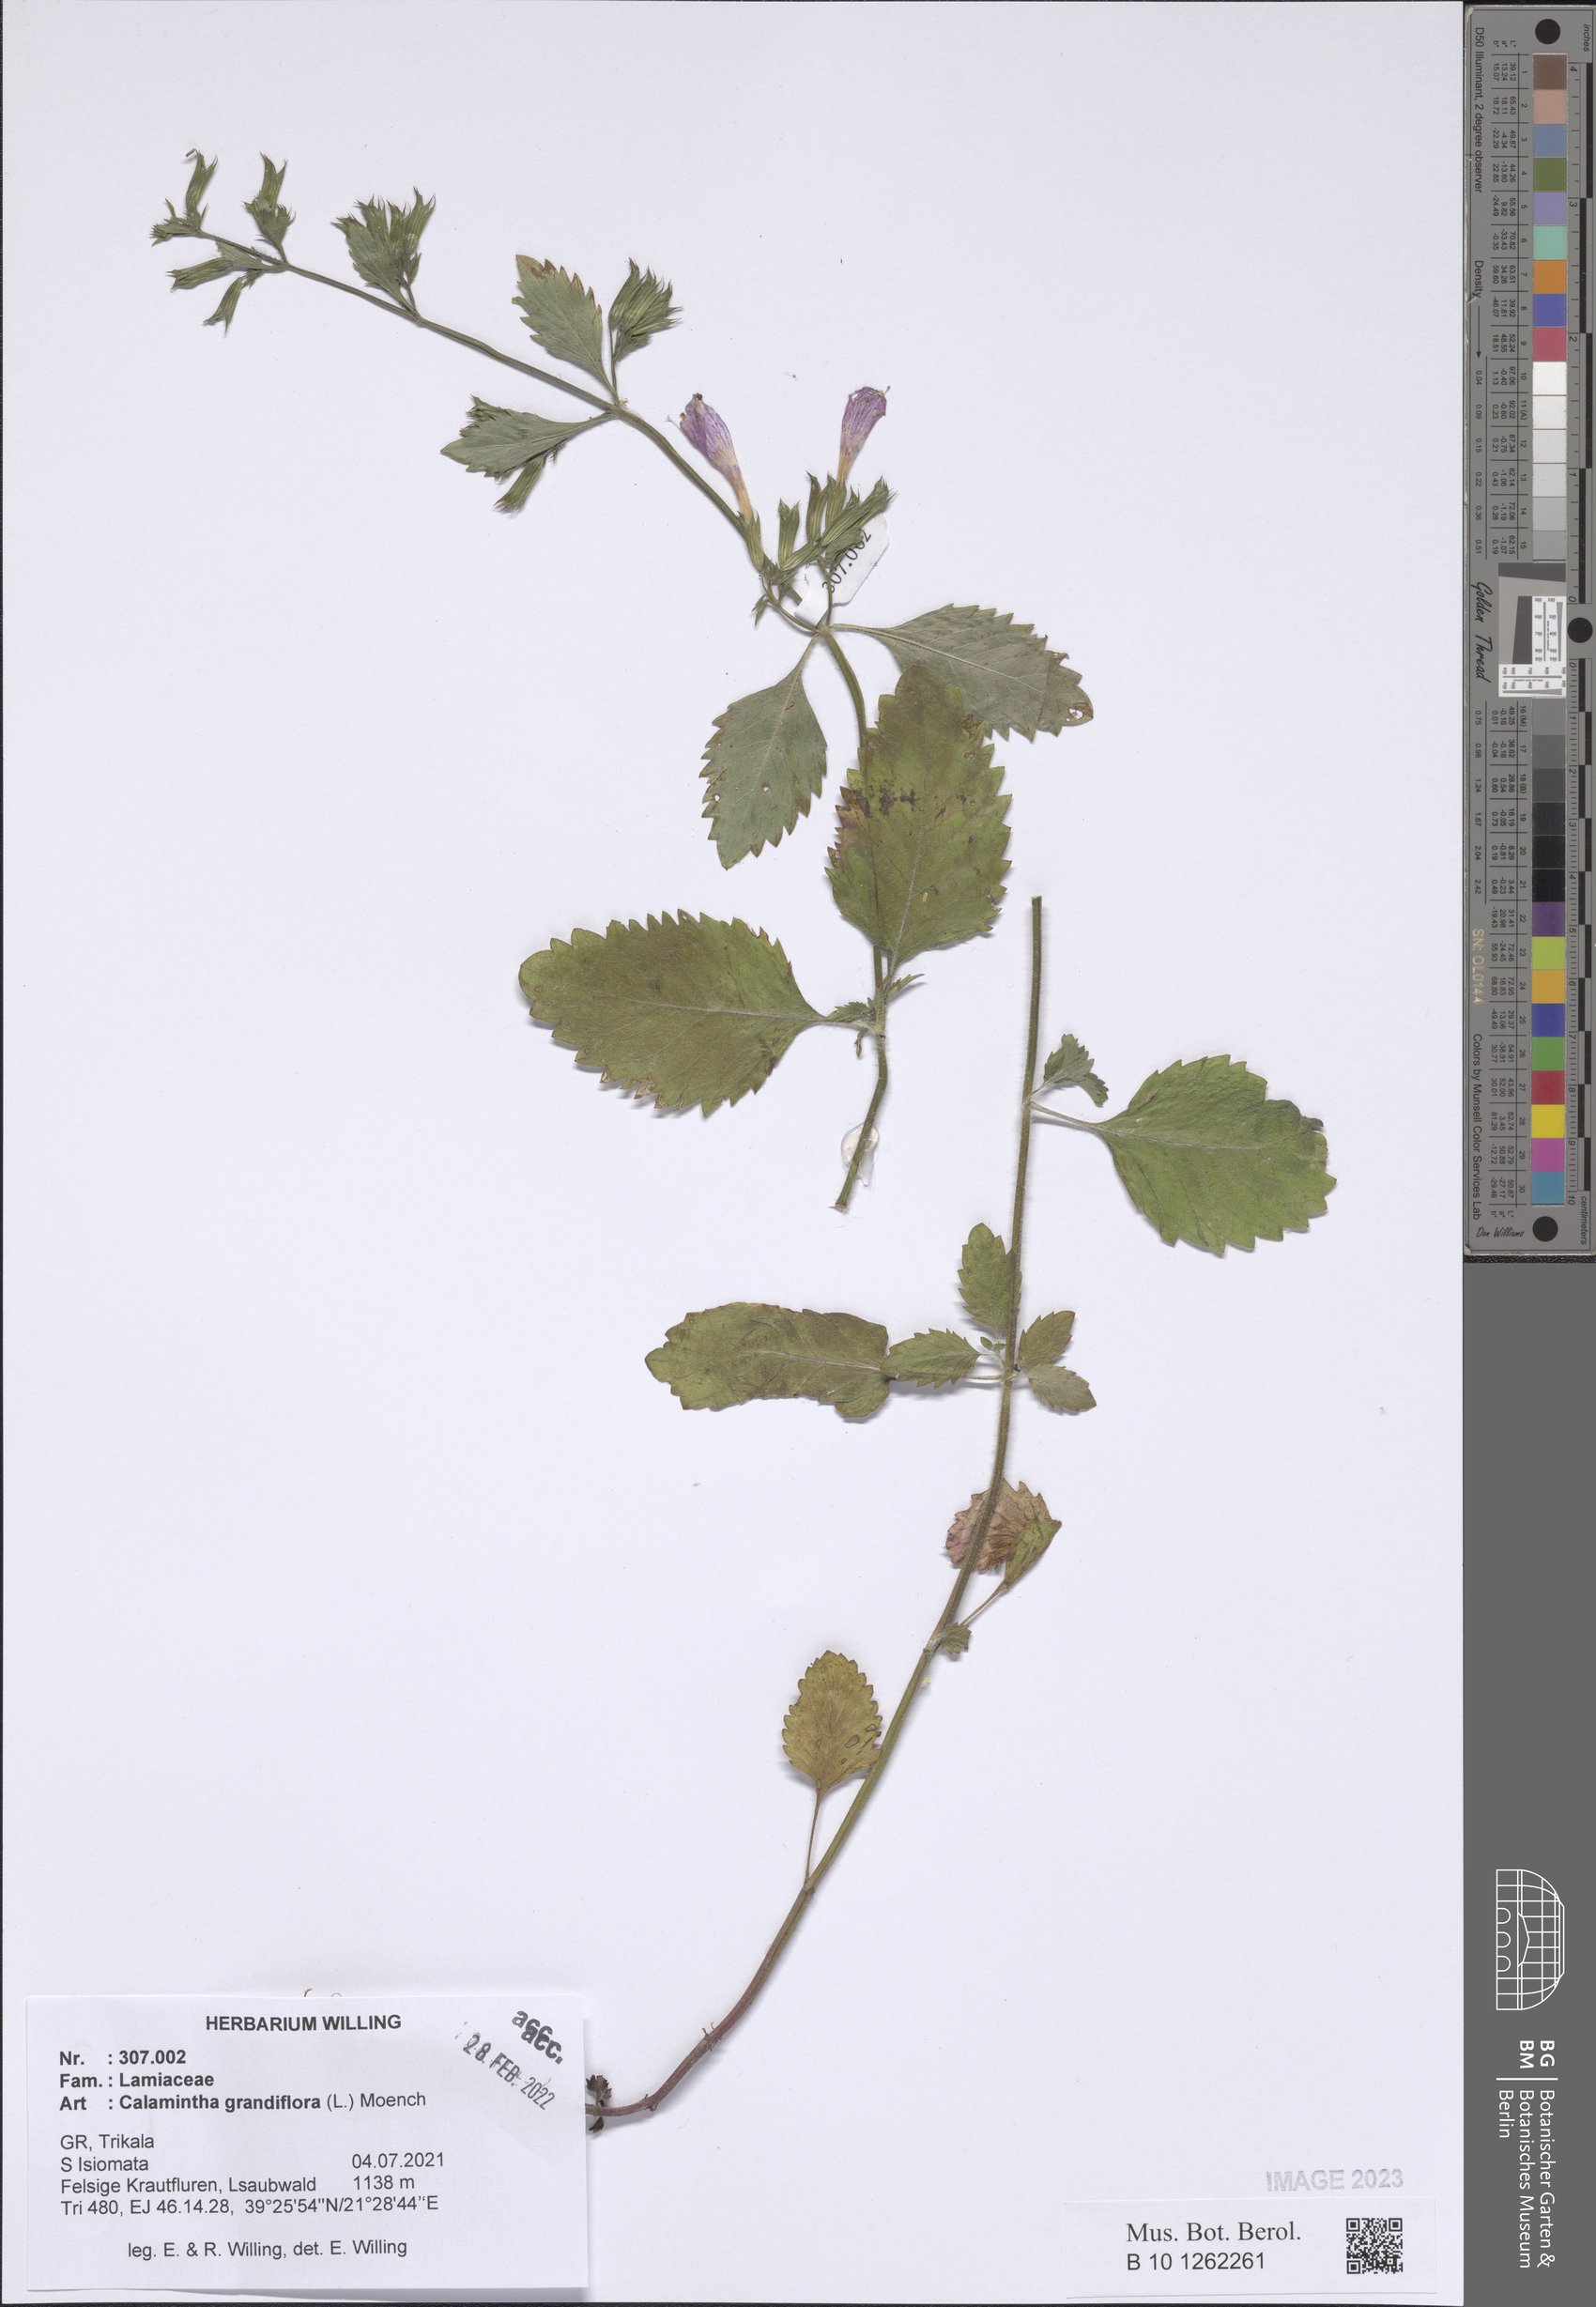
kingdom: Plantae
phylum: Tracheophyta
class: Magnoliopsida
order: Lamiales
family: Lamiaceae
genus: Clinopodium
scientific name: Clinopodium grandiflorum
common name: Greater calamint
